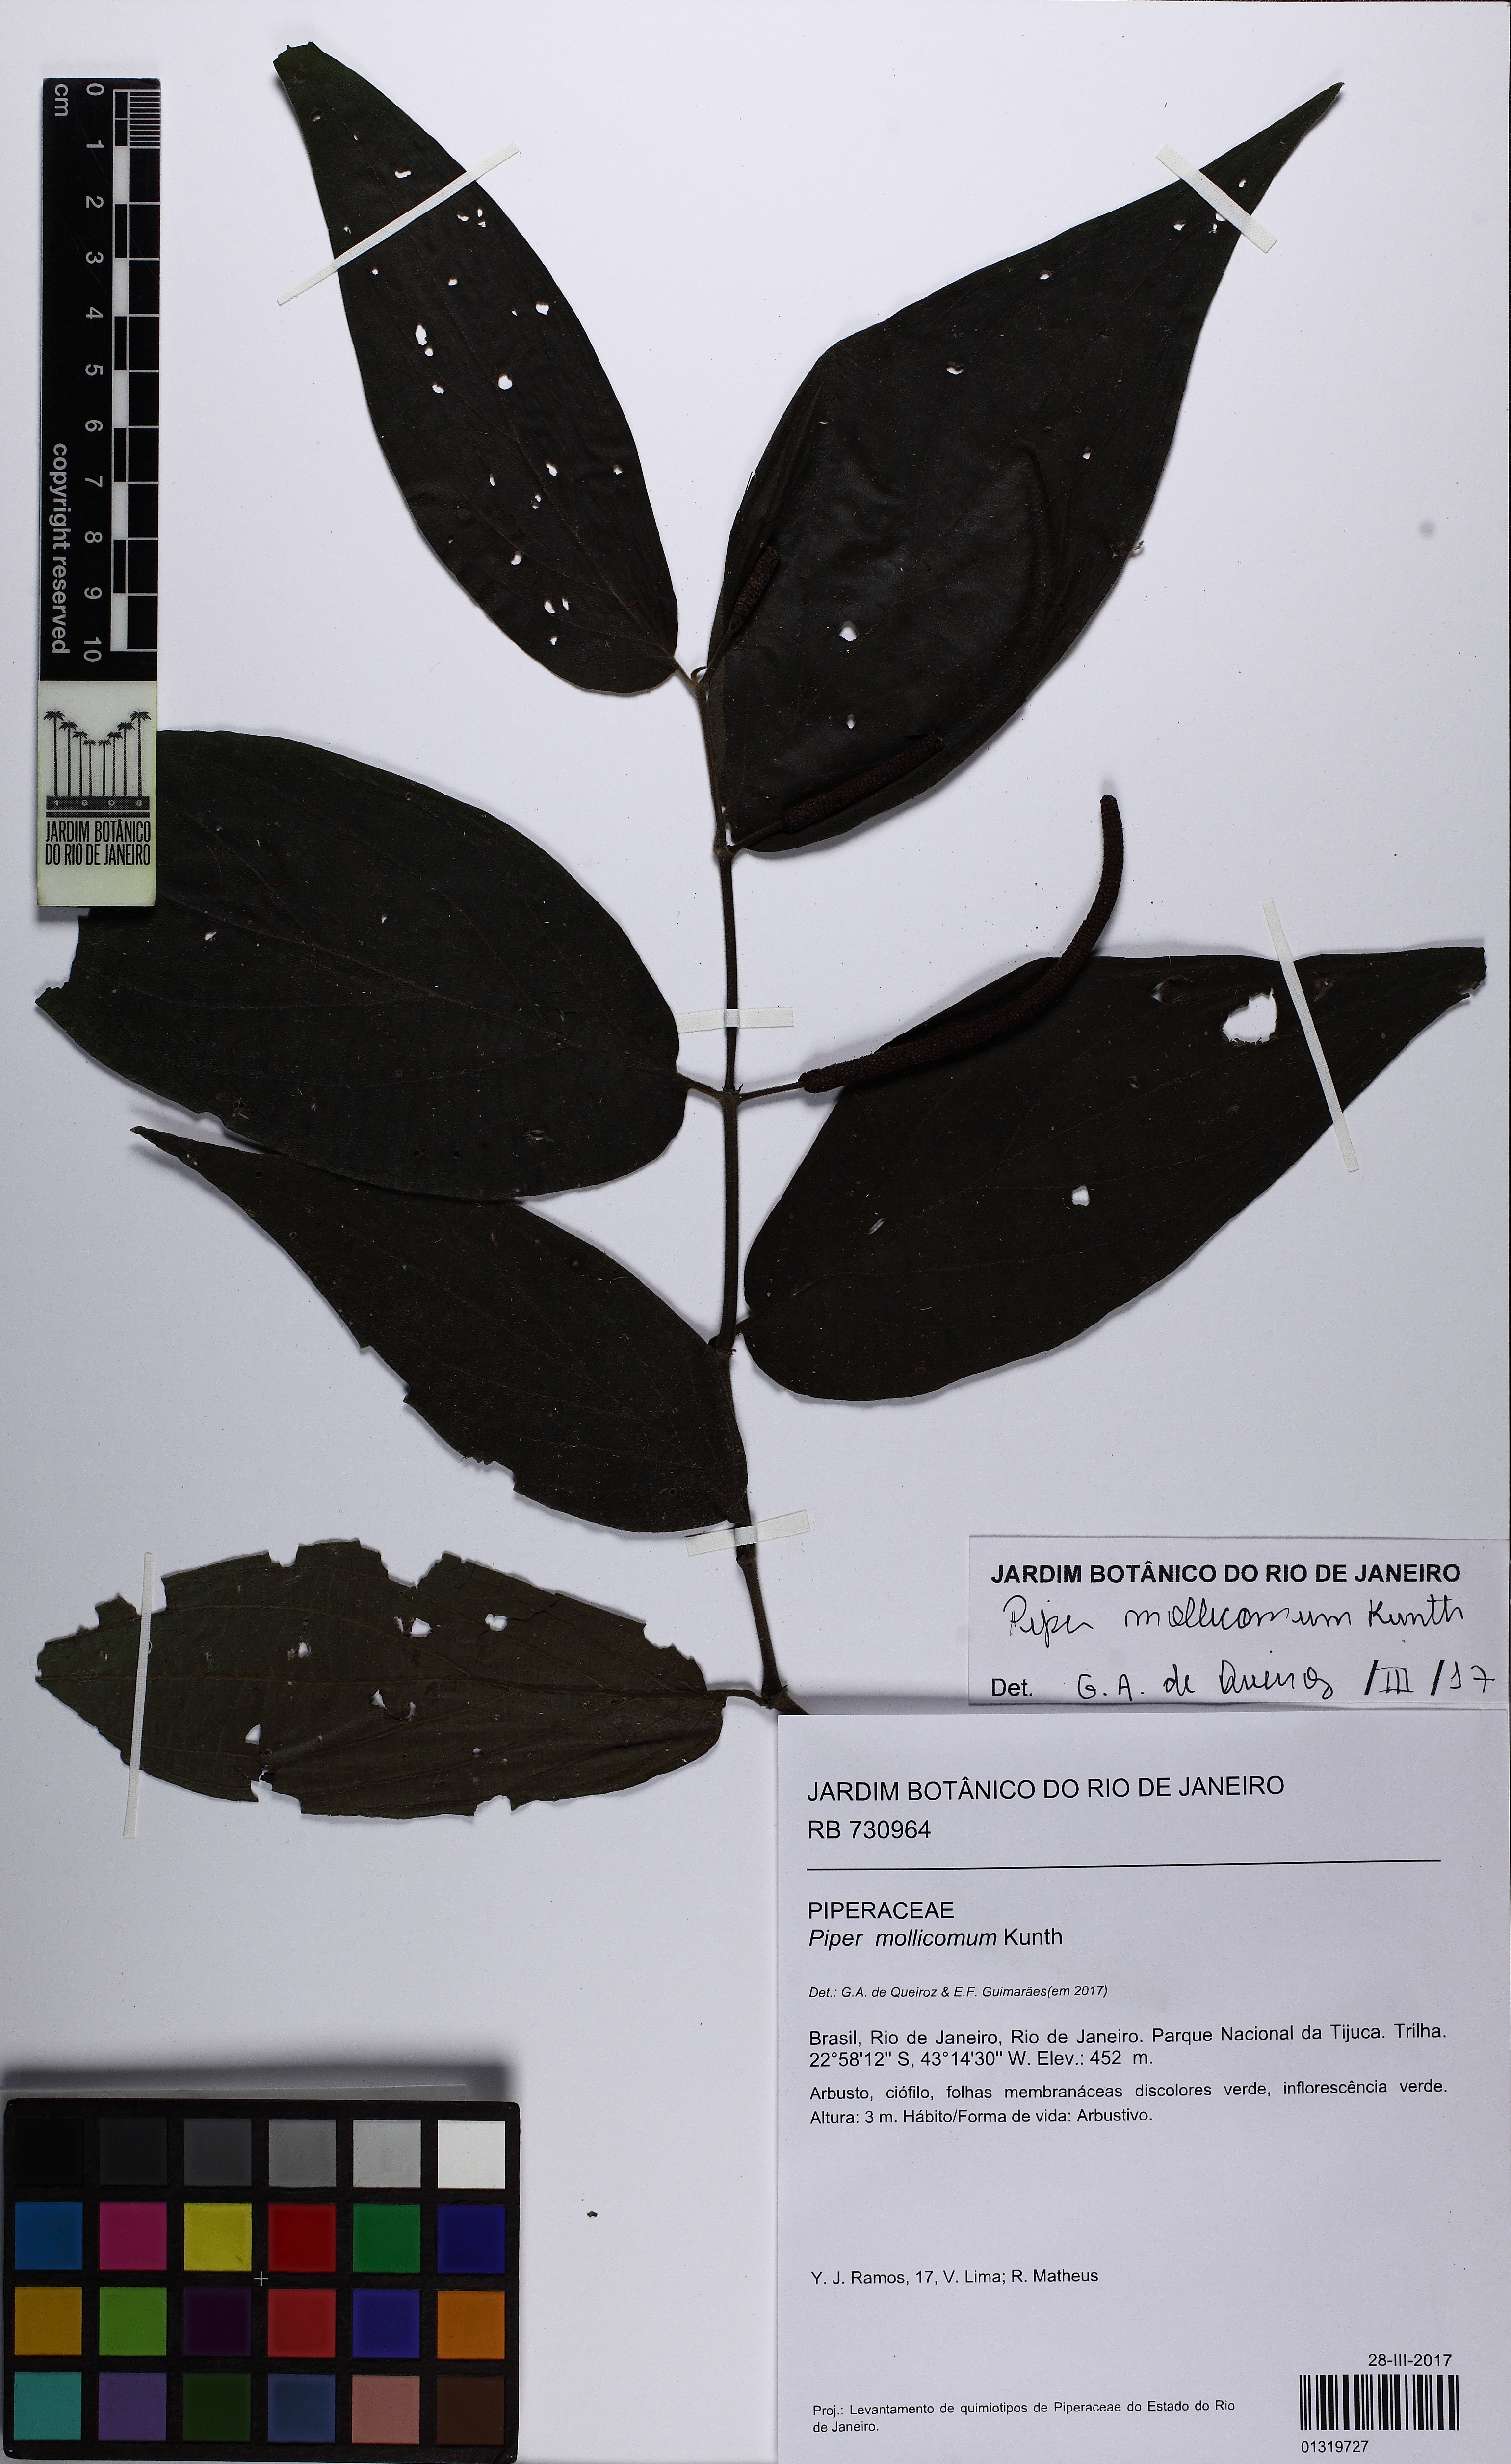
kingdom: Plantae
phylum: Tracheophyta
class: Magnoliopsida
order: Piperales
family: Piperaceae
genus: Piper
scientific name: Piper mollicomum
